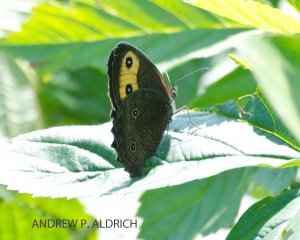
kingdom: Animalia
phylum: Arthropoda
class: Insecta
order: Lepidoptera
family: Nymphalidae
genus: Cercyonis
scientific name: Cercyonis pegala
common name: Common Wood-Nymph
